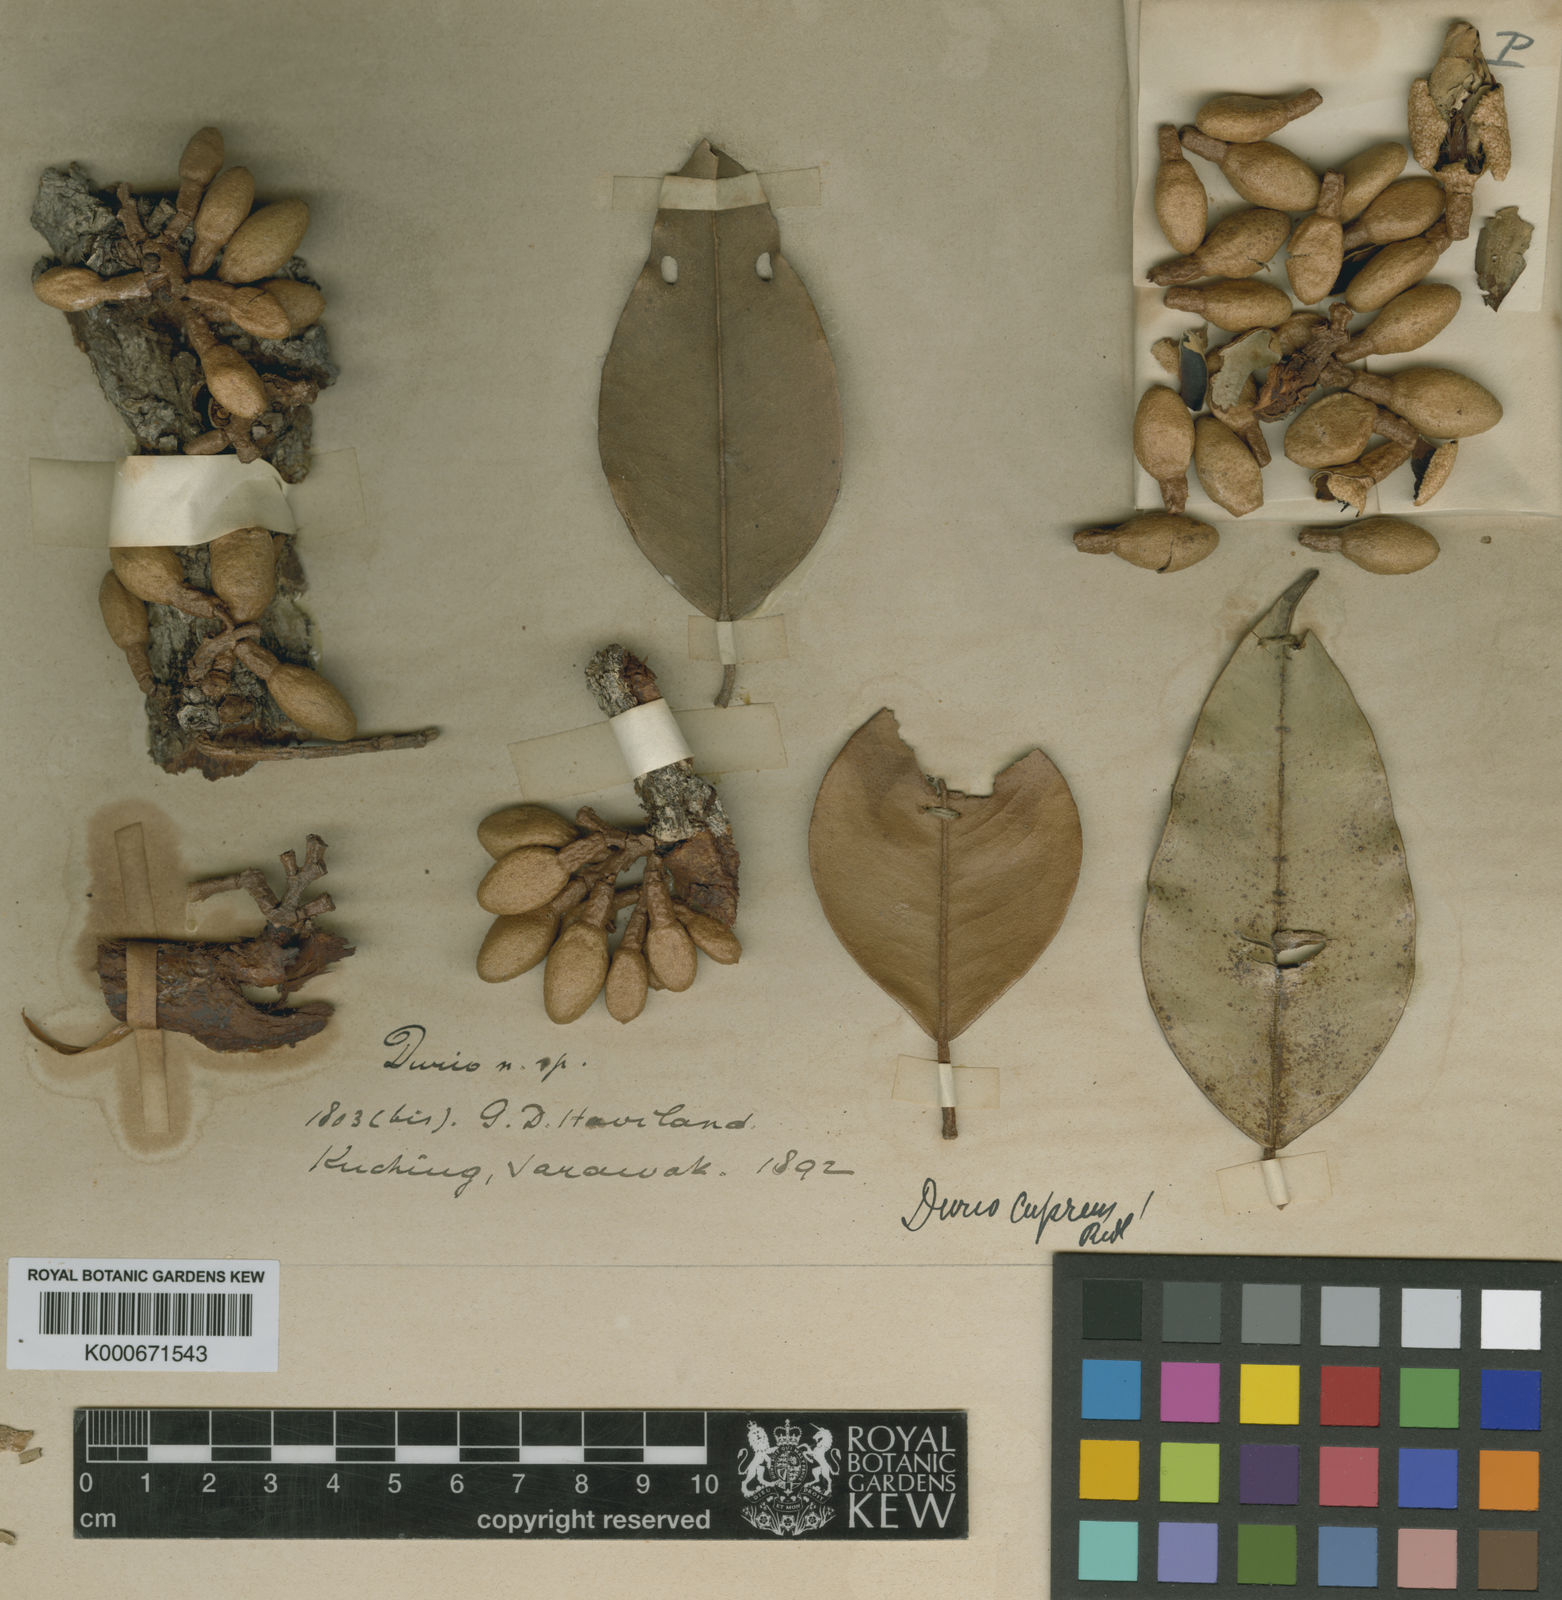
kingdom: Plantae
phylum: Tracheophyta
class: Magnoliopsida
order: Malvales
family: Malvaceae
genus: Durio
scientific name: Durio carinatus
